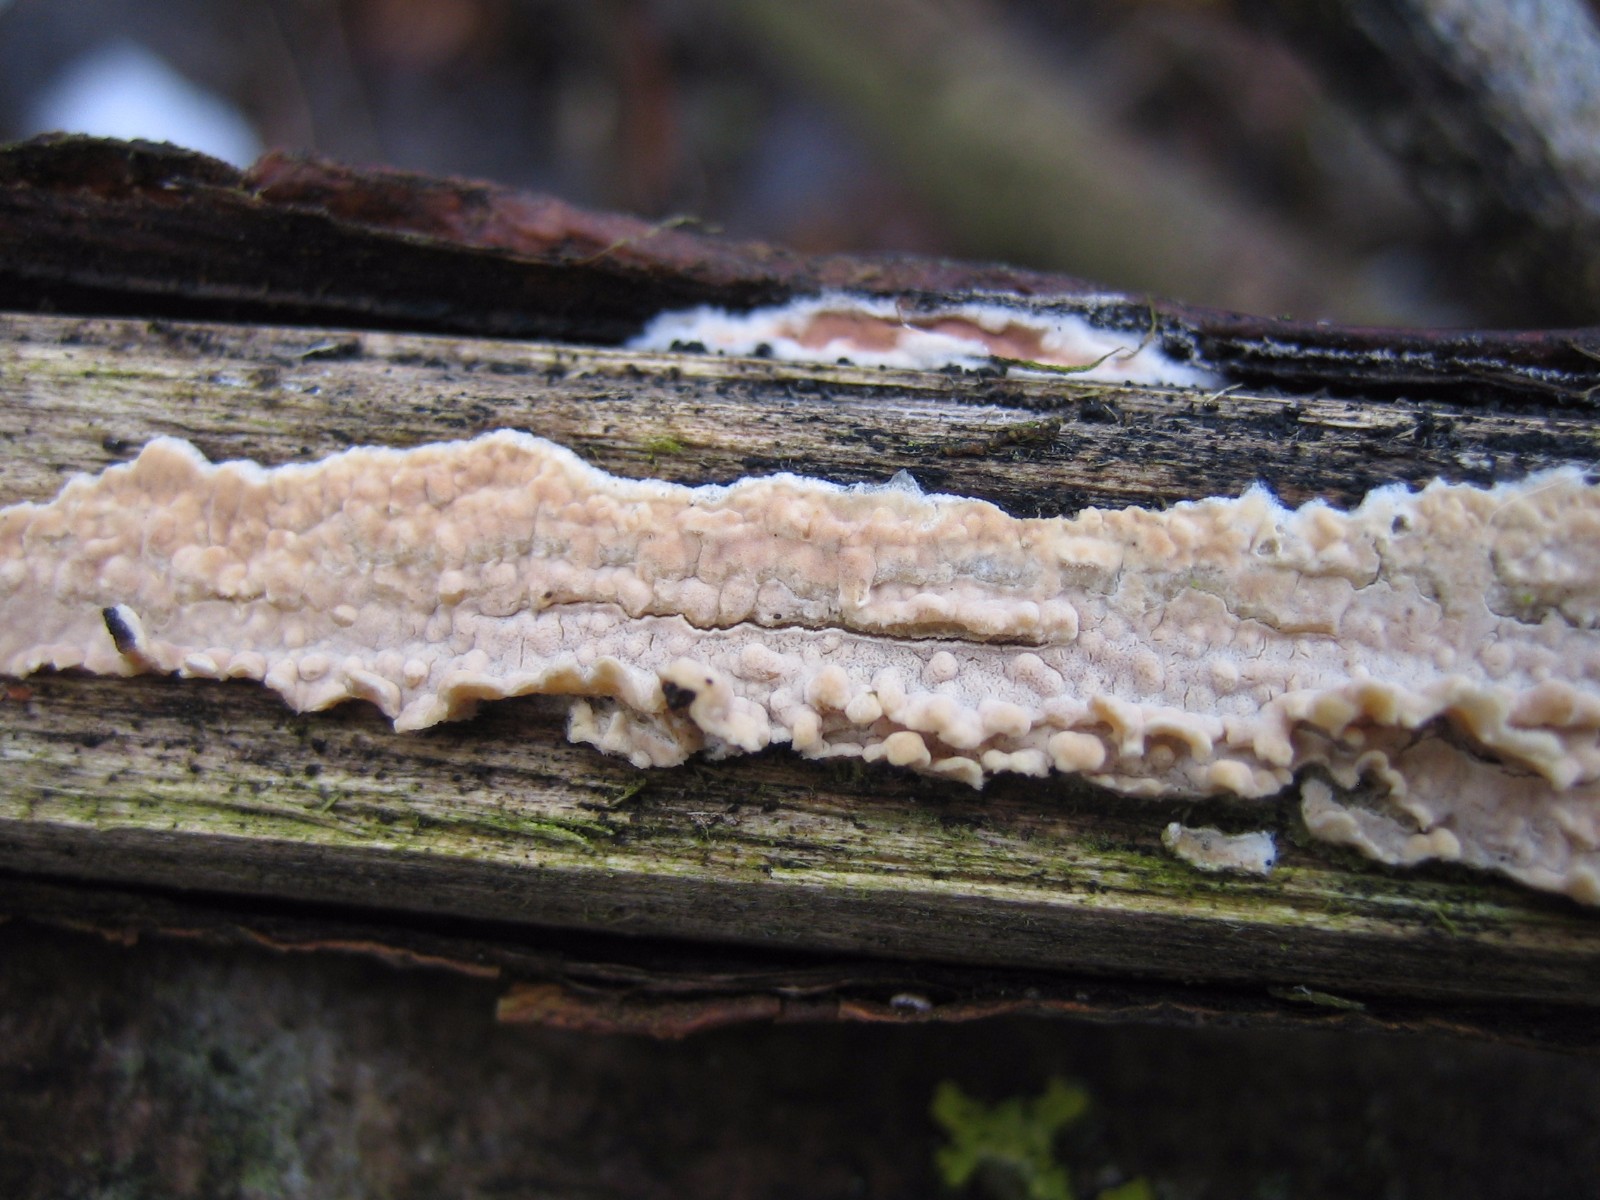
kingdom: Fungi
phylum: Basidiomycota
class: Agaricomycetes
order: Agaricales
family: Physalacriaceae
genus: Cylindrobasidium
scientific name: Cylindrobasidium
